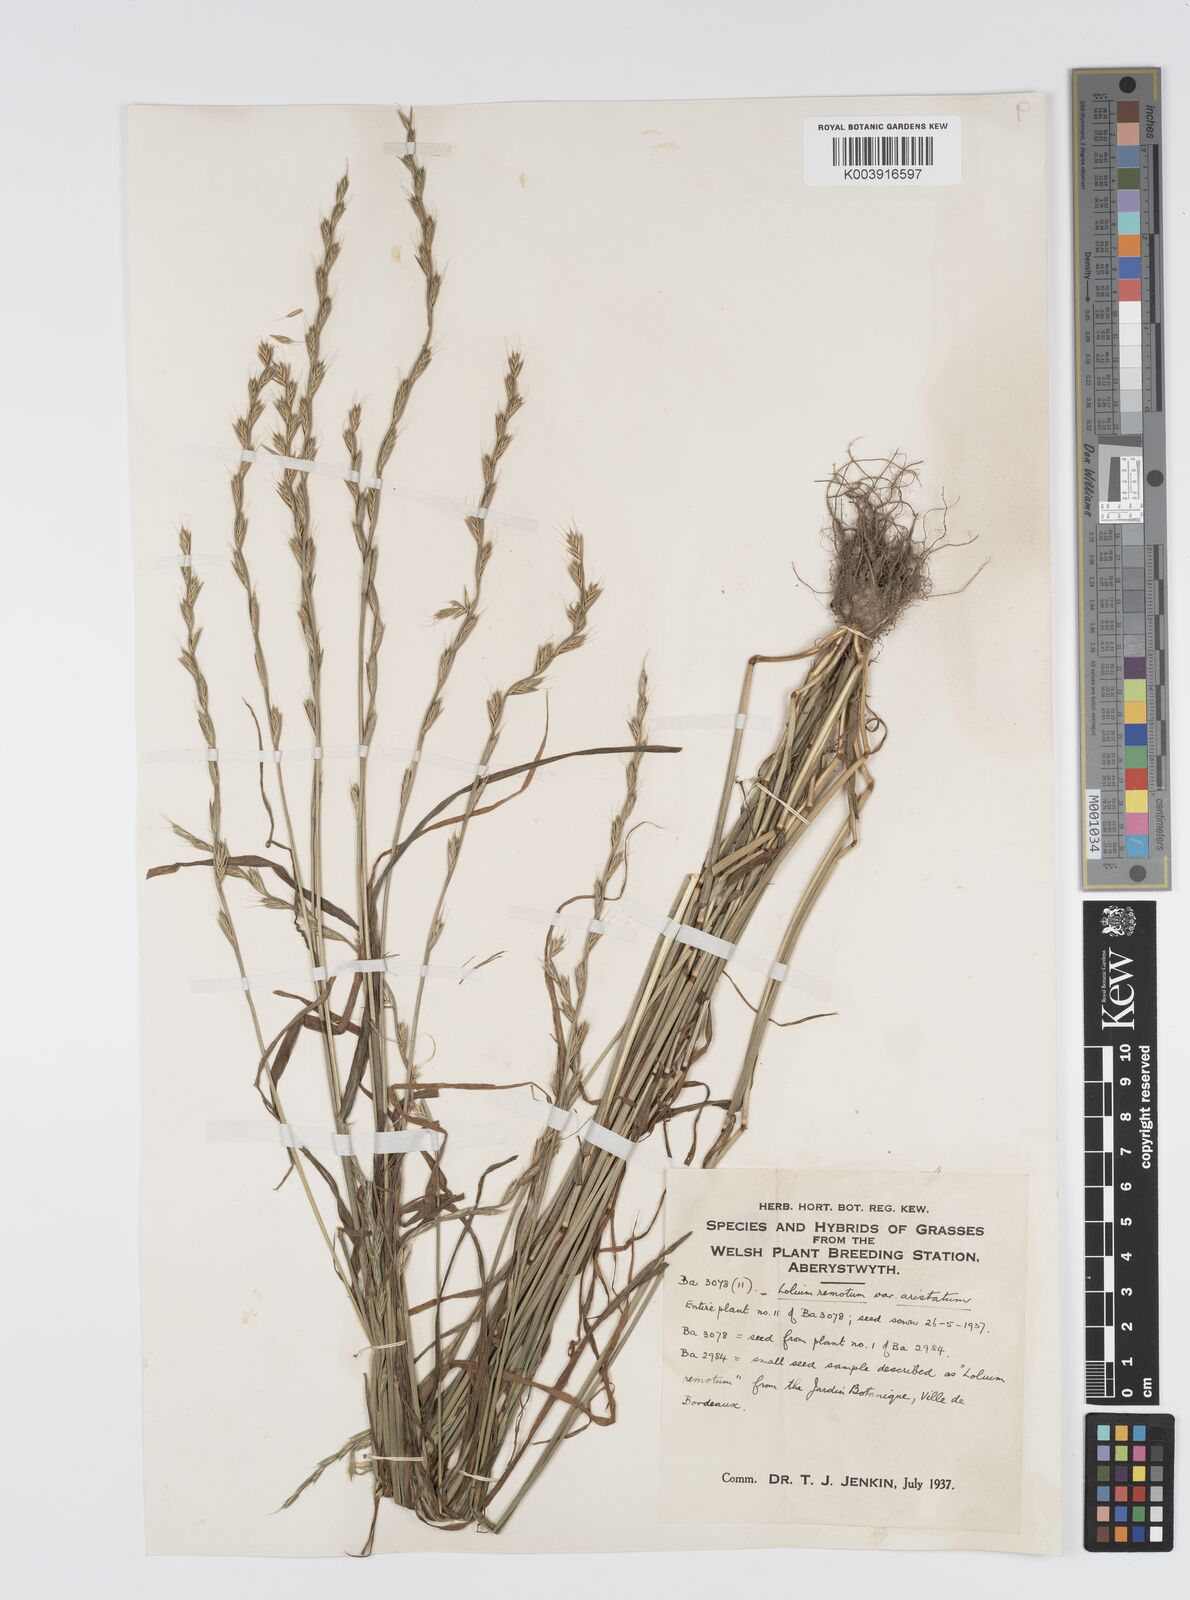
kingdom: Plantae
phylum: Tracheophyta
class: Liliopsida
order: Poales
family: Poaceae
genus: Lolium
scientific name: Lolium remotum
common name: Flaxfield rye-grass
